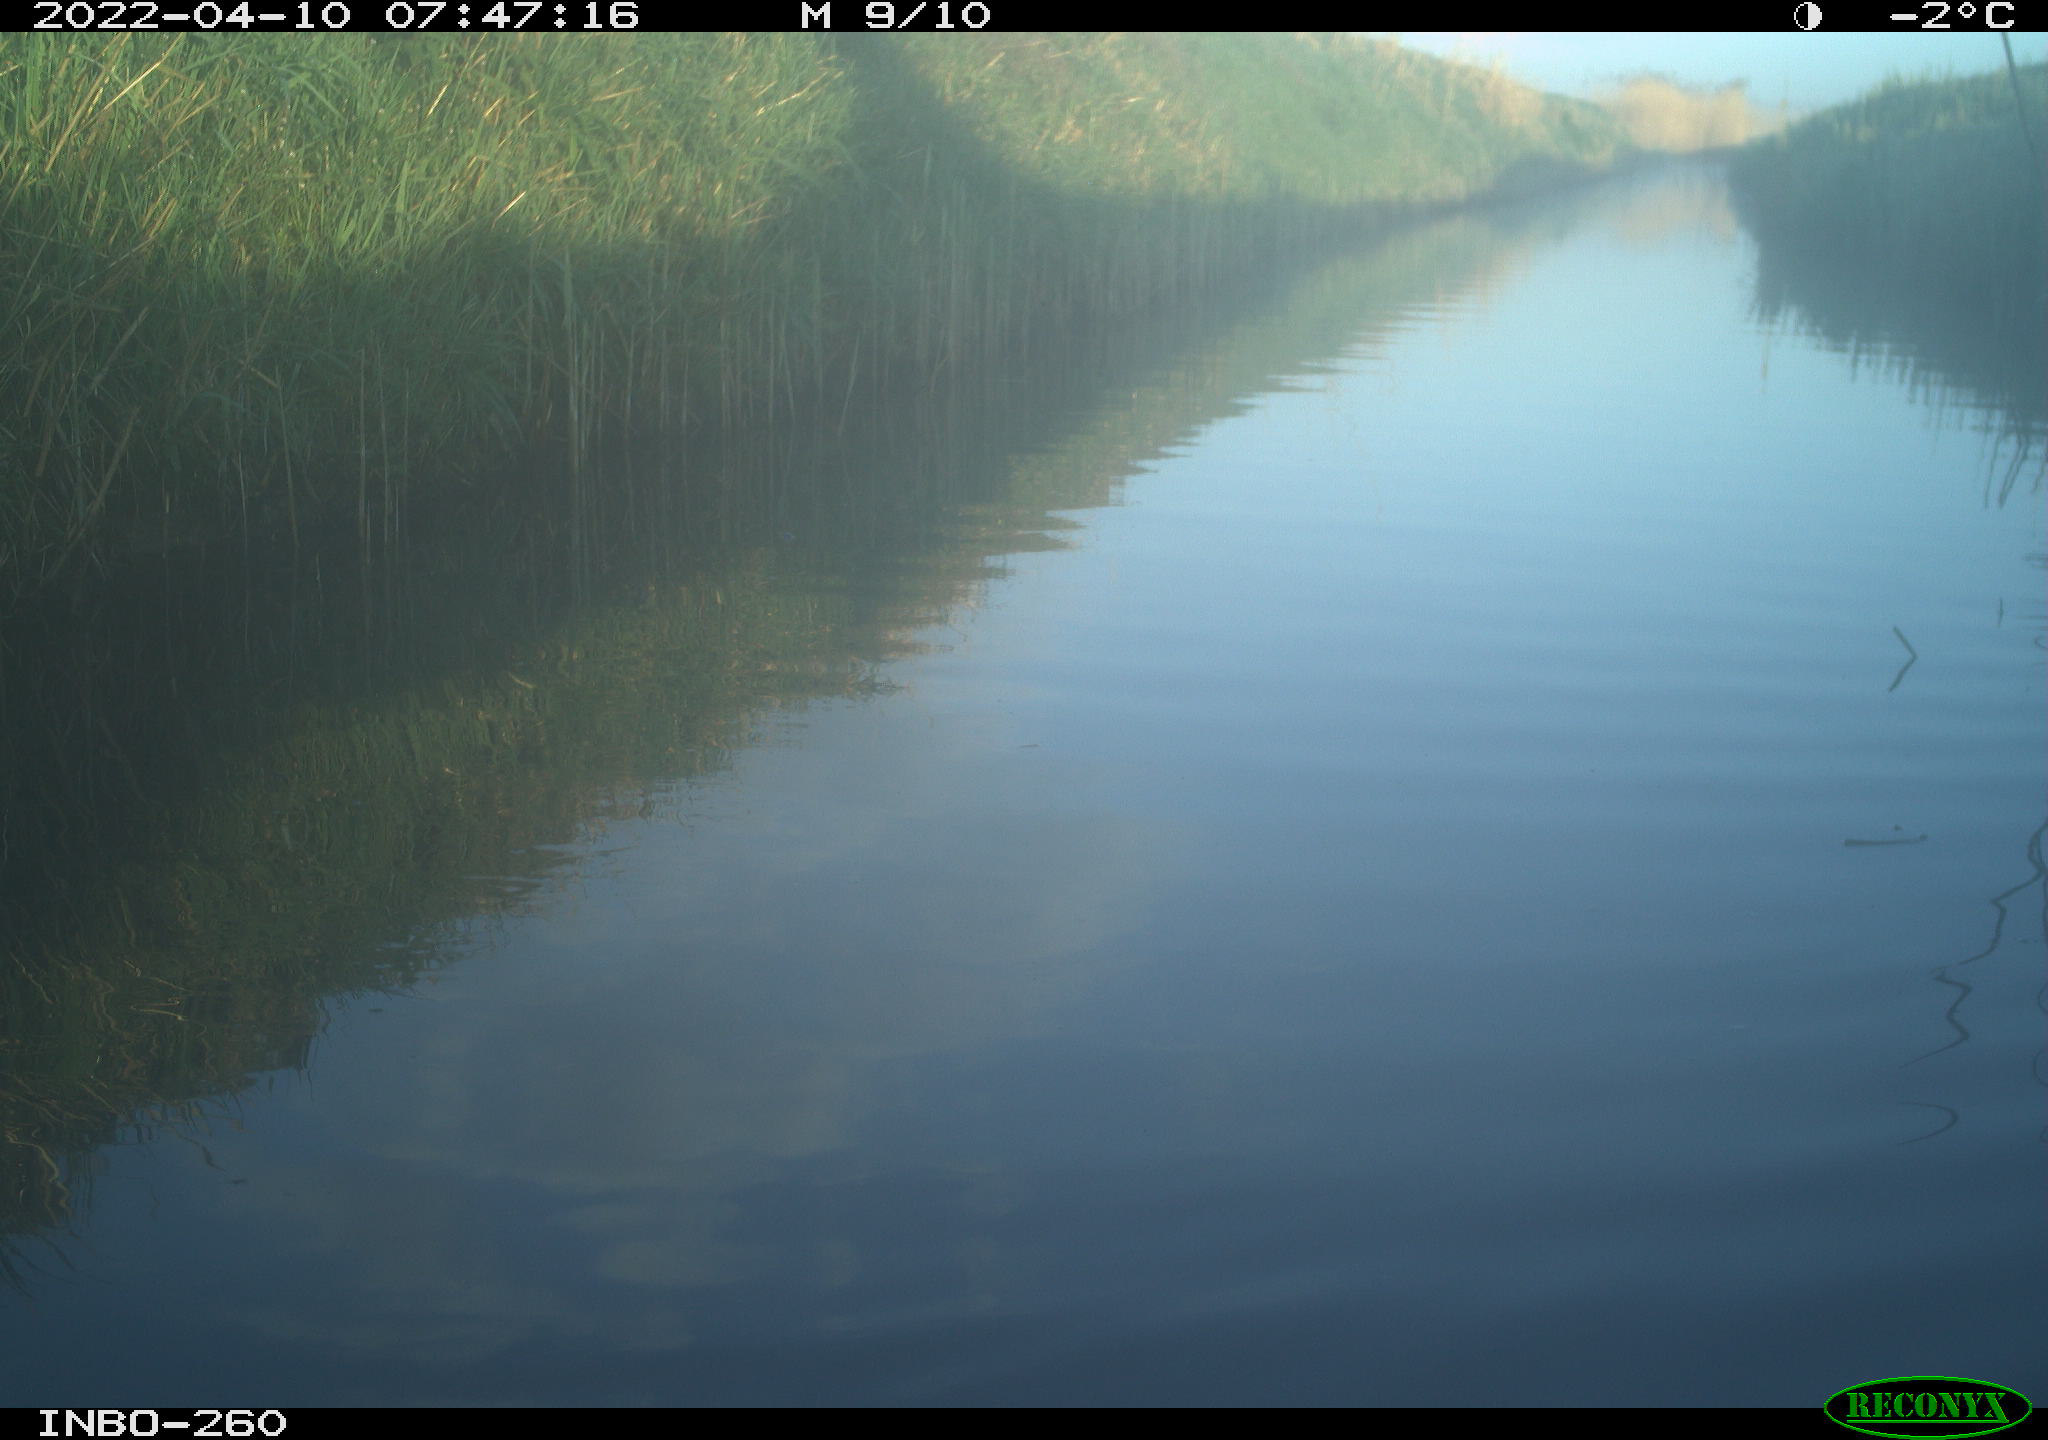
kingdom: Animalia
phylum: Chordata
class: Aves
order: Gruiformes
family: Rallidae
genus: Fulica
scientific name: Fulica atra
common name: Eurasian coot
